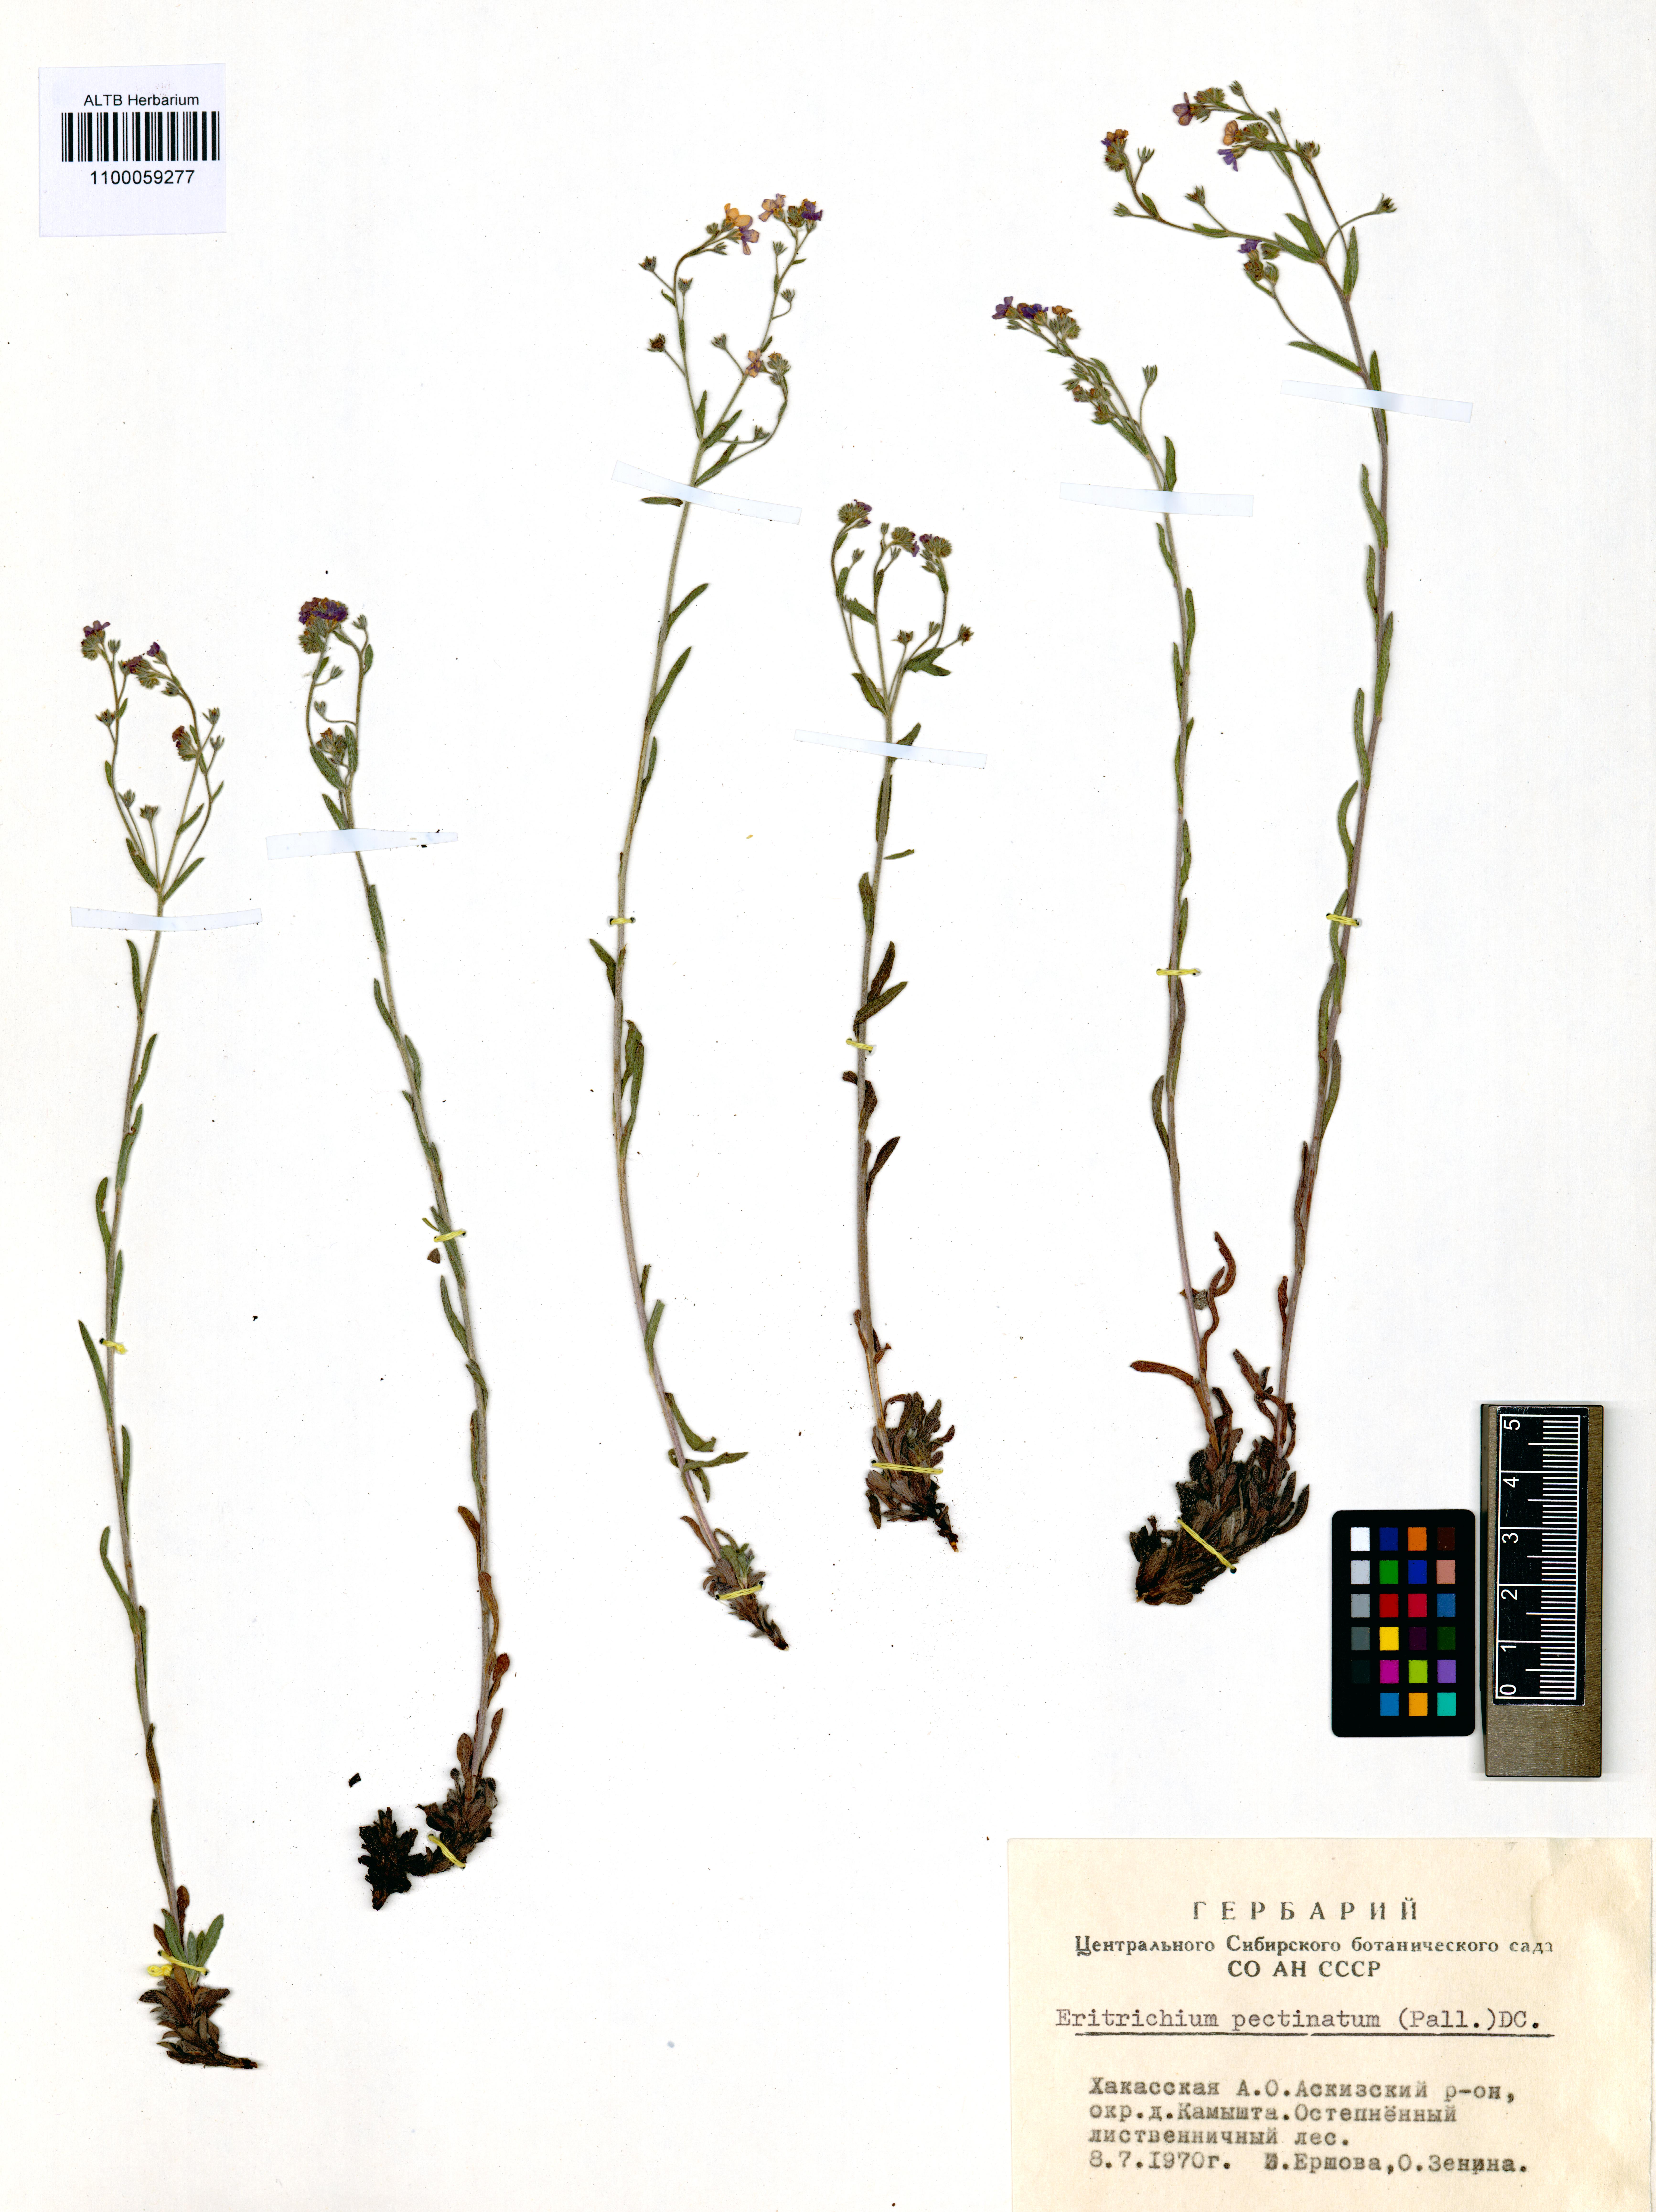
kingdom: Plantae
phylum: Tracheophyta
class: Magnoliopsida
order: Boraginales
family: Boraginaceae
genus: Eritrichium
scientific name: Eritrichium pectinatum
